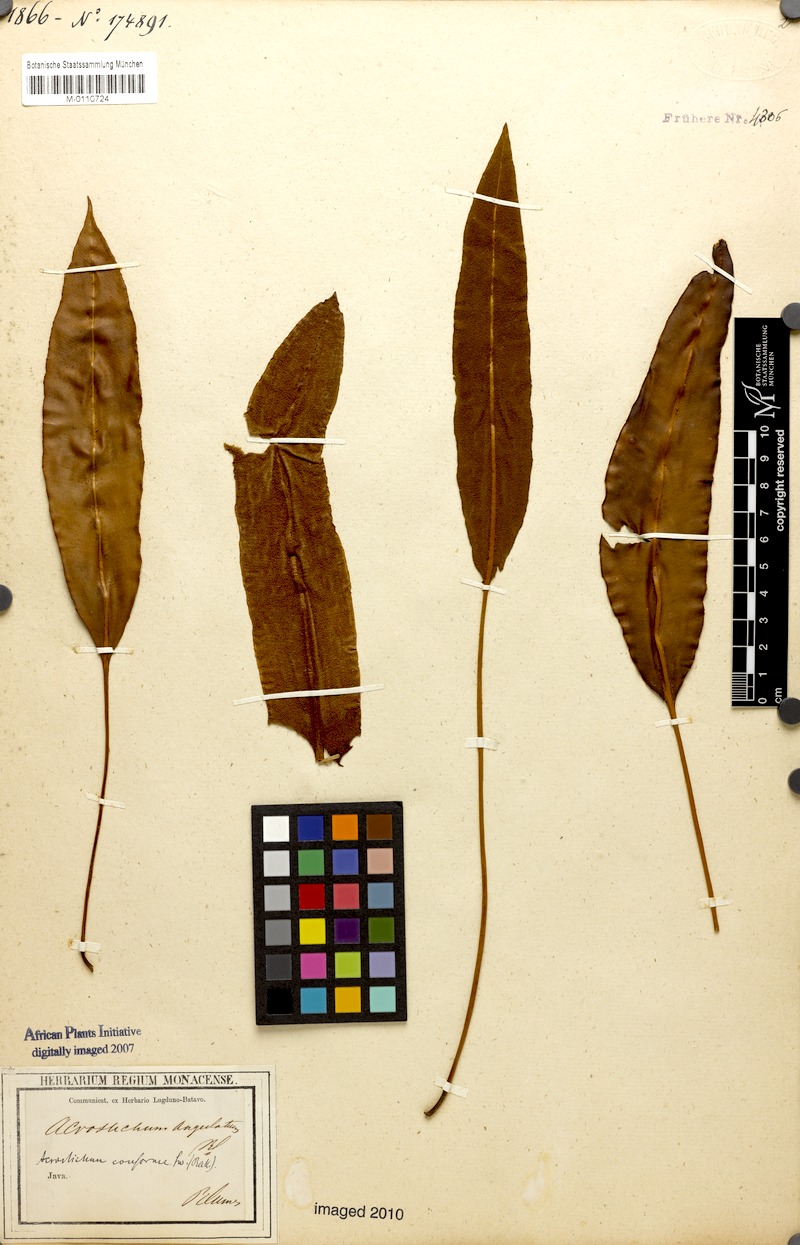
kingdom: Plantae
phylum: Tracheophyta
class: Polypodiopsida
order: Polypodiales
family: Dryopteridaceae
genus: Elaphoglossum
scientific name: Elaphoglossum angulatum
